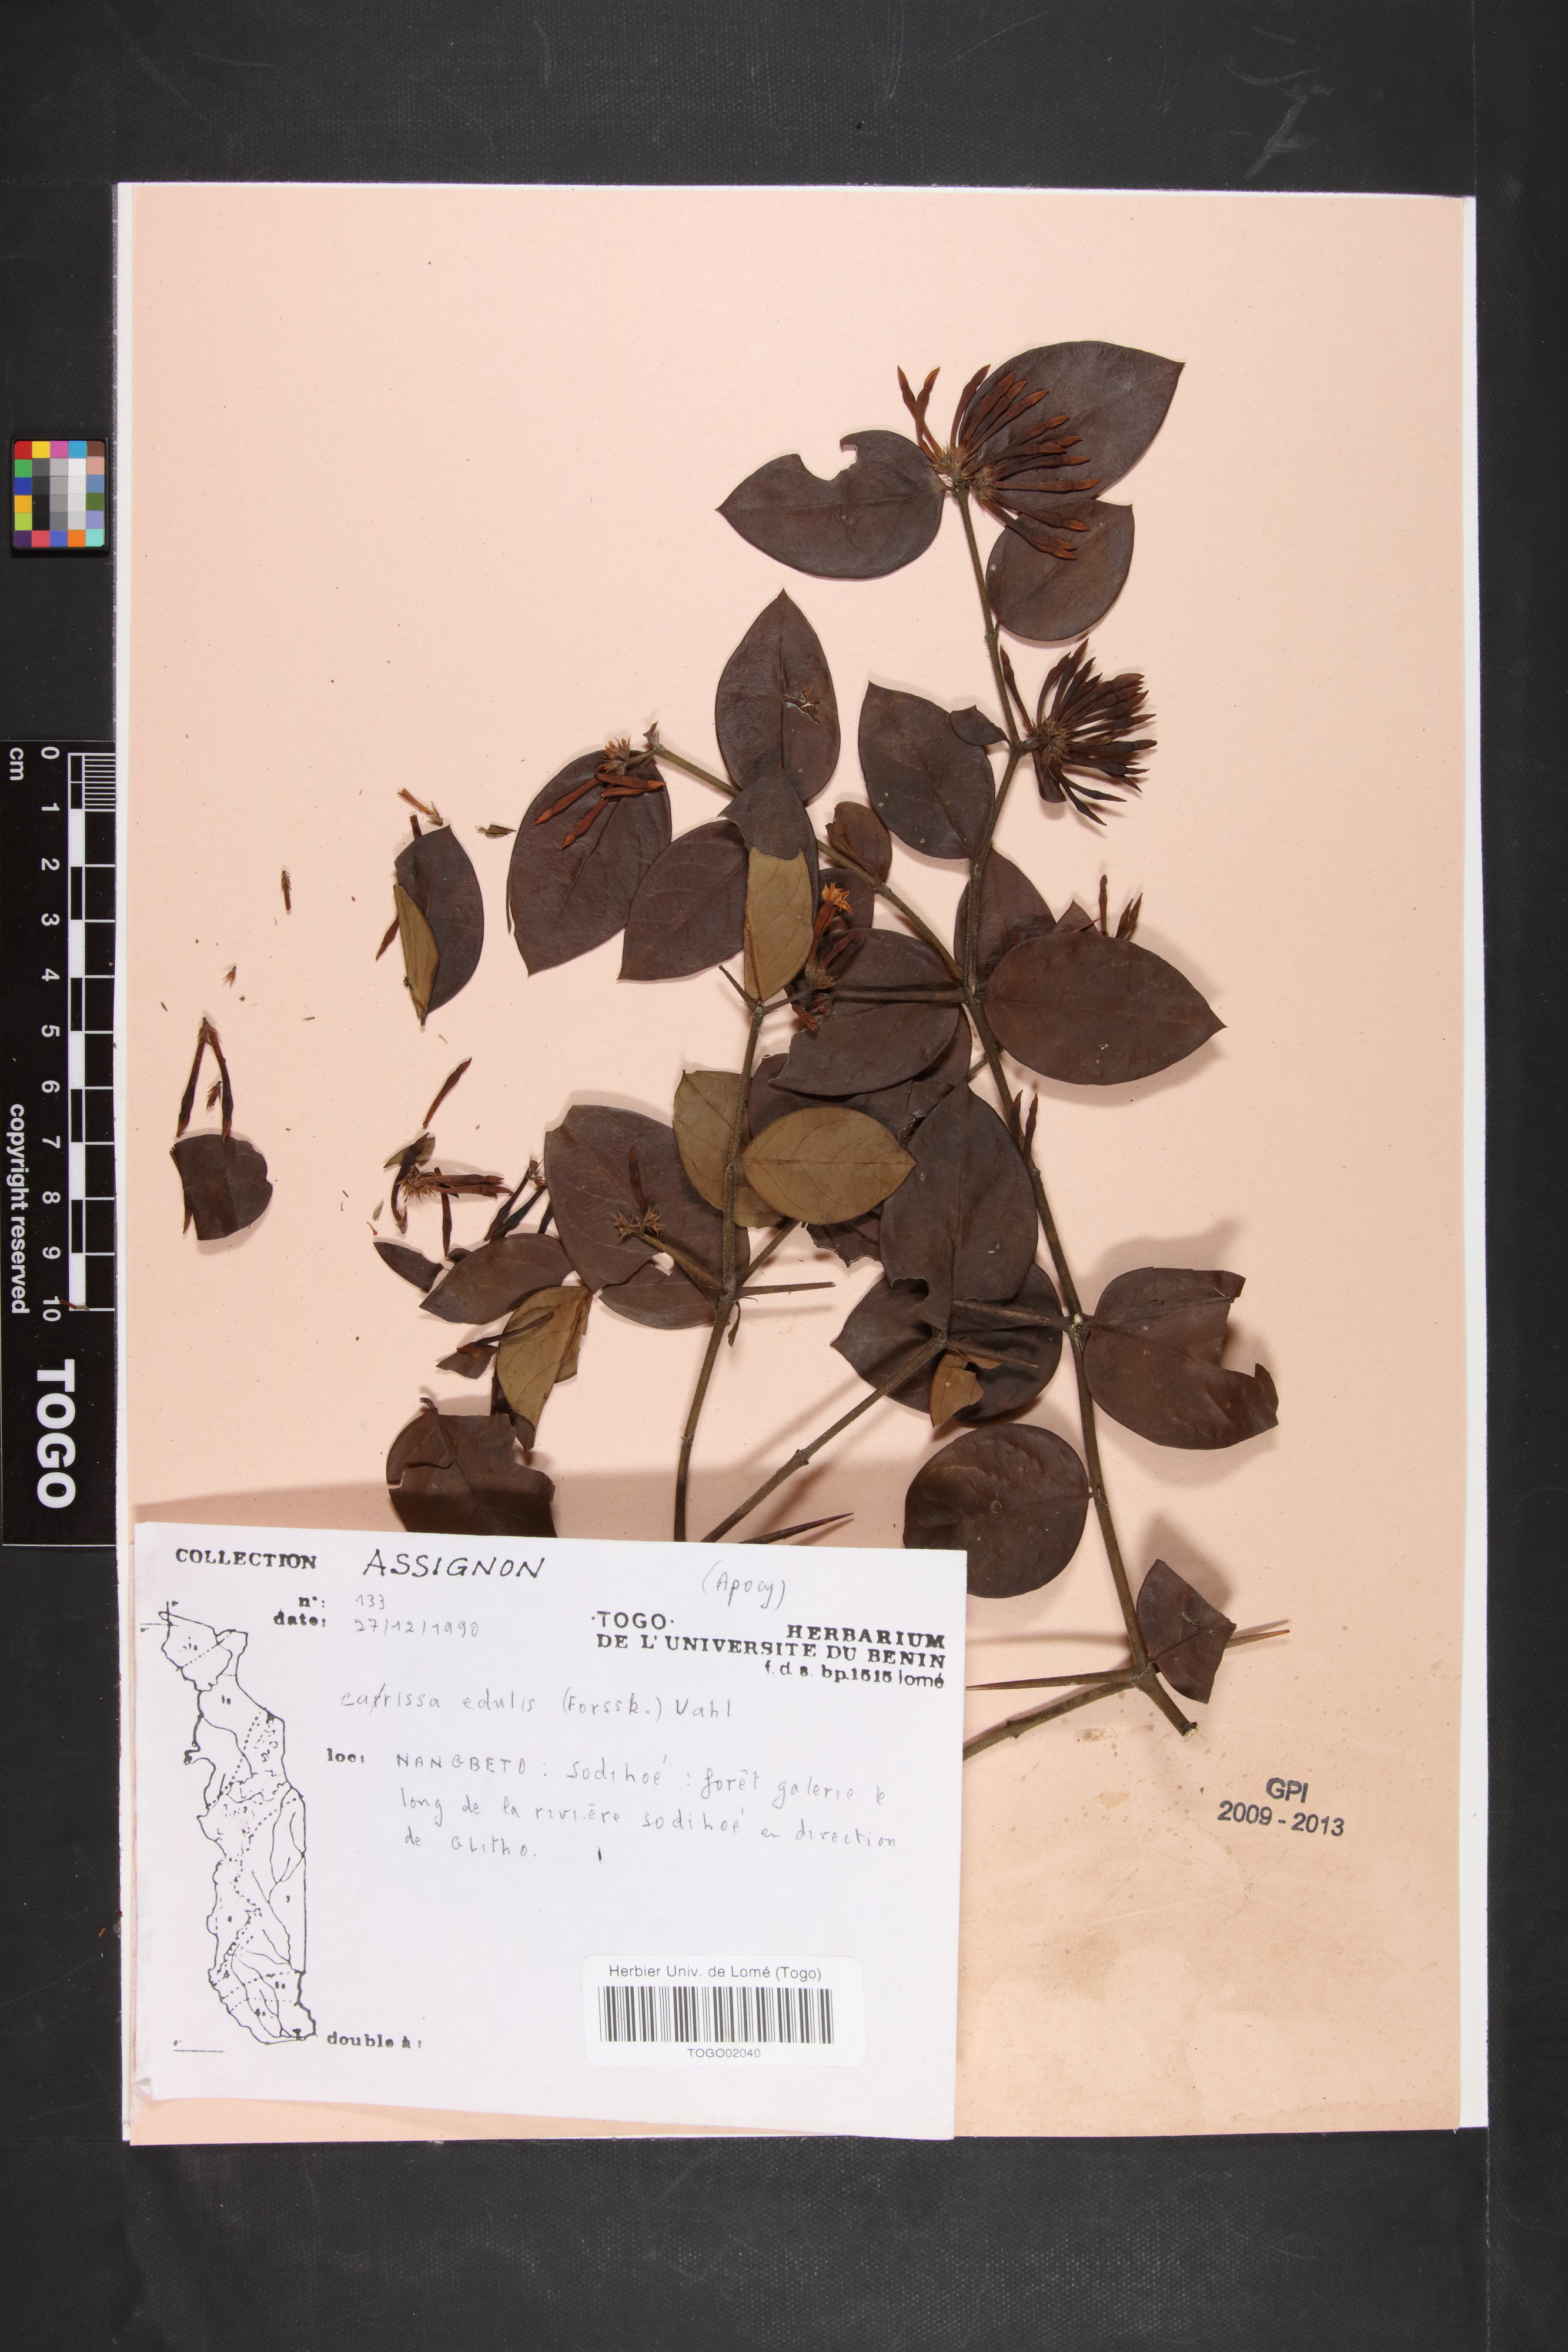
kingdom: Plantae
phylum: Tracheophyta
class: Magnoliopsida
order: Gentianales
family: Apocynaceae
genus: Carissa
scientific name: Carissa spinarum
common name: Egyptian carissa
